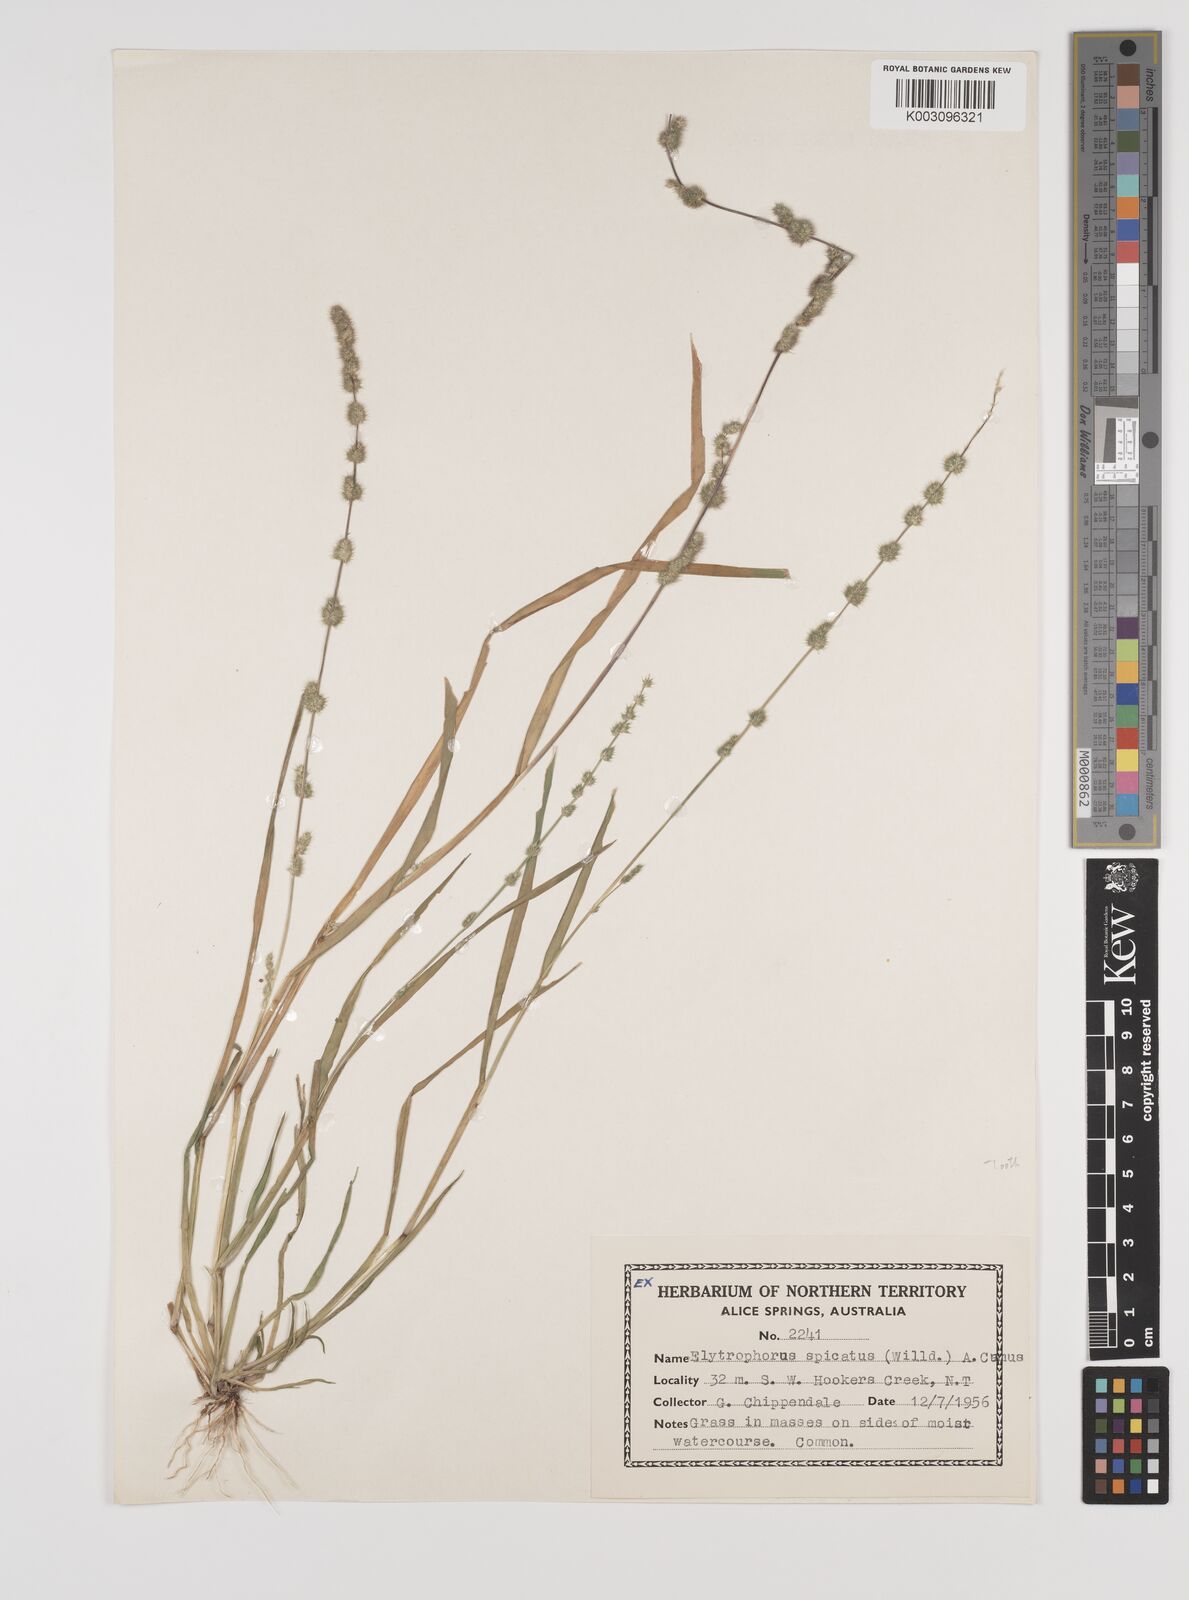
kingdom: Plantae
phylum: Tracheophyta
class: Liliopsida
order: Poales
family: Poaceae
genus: Elytrophorus
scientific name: Elytrophorus spicatus
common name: Spike grass
